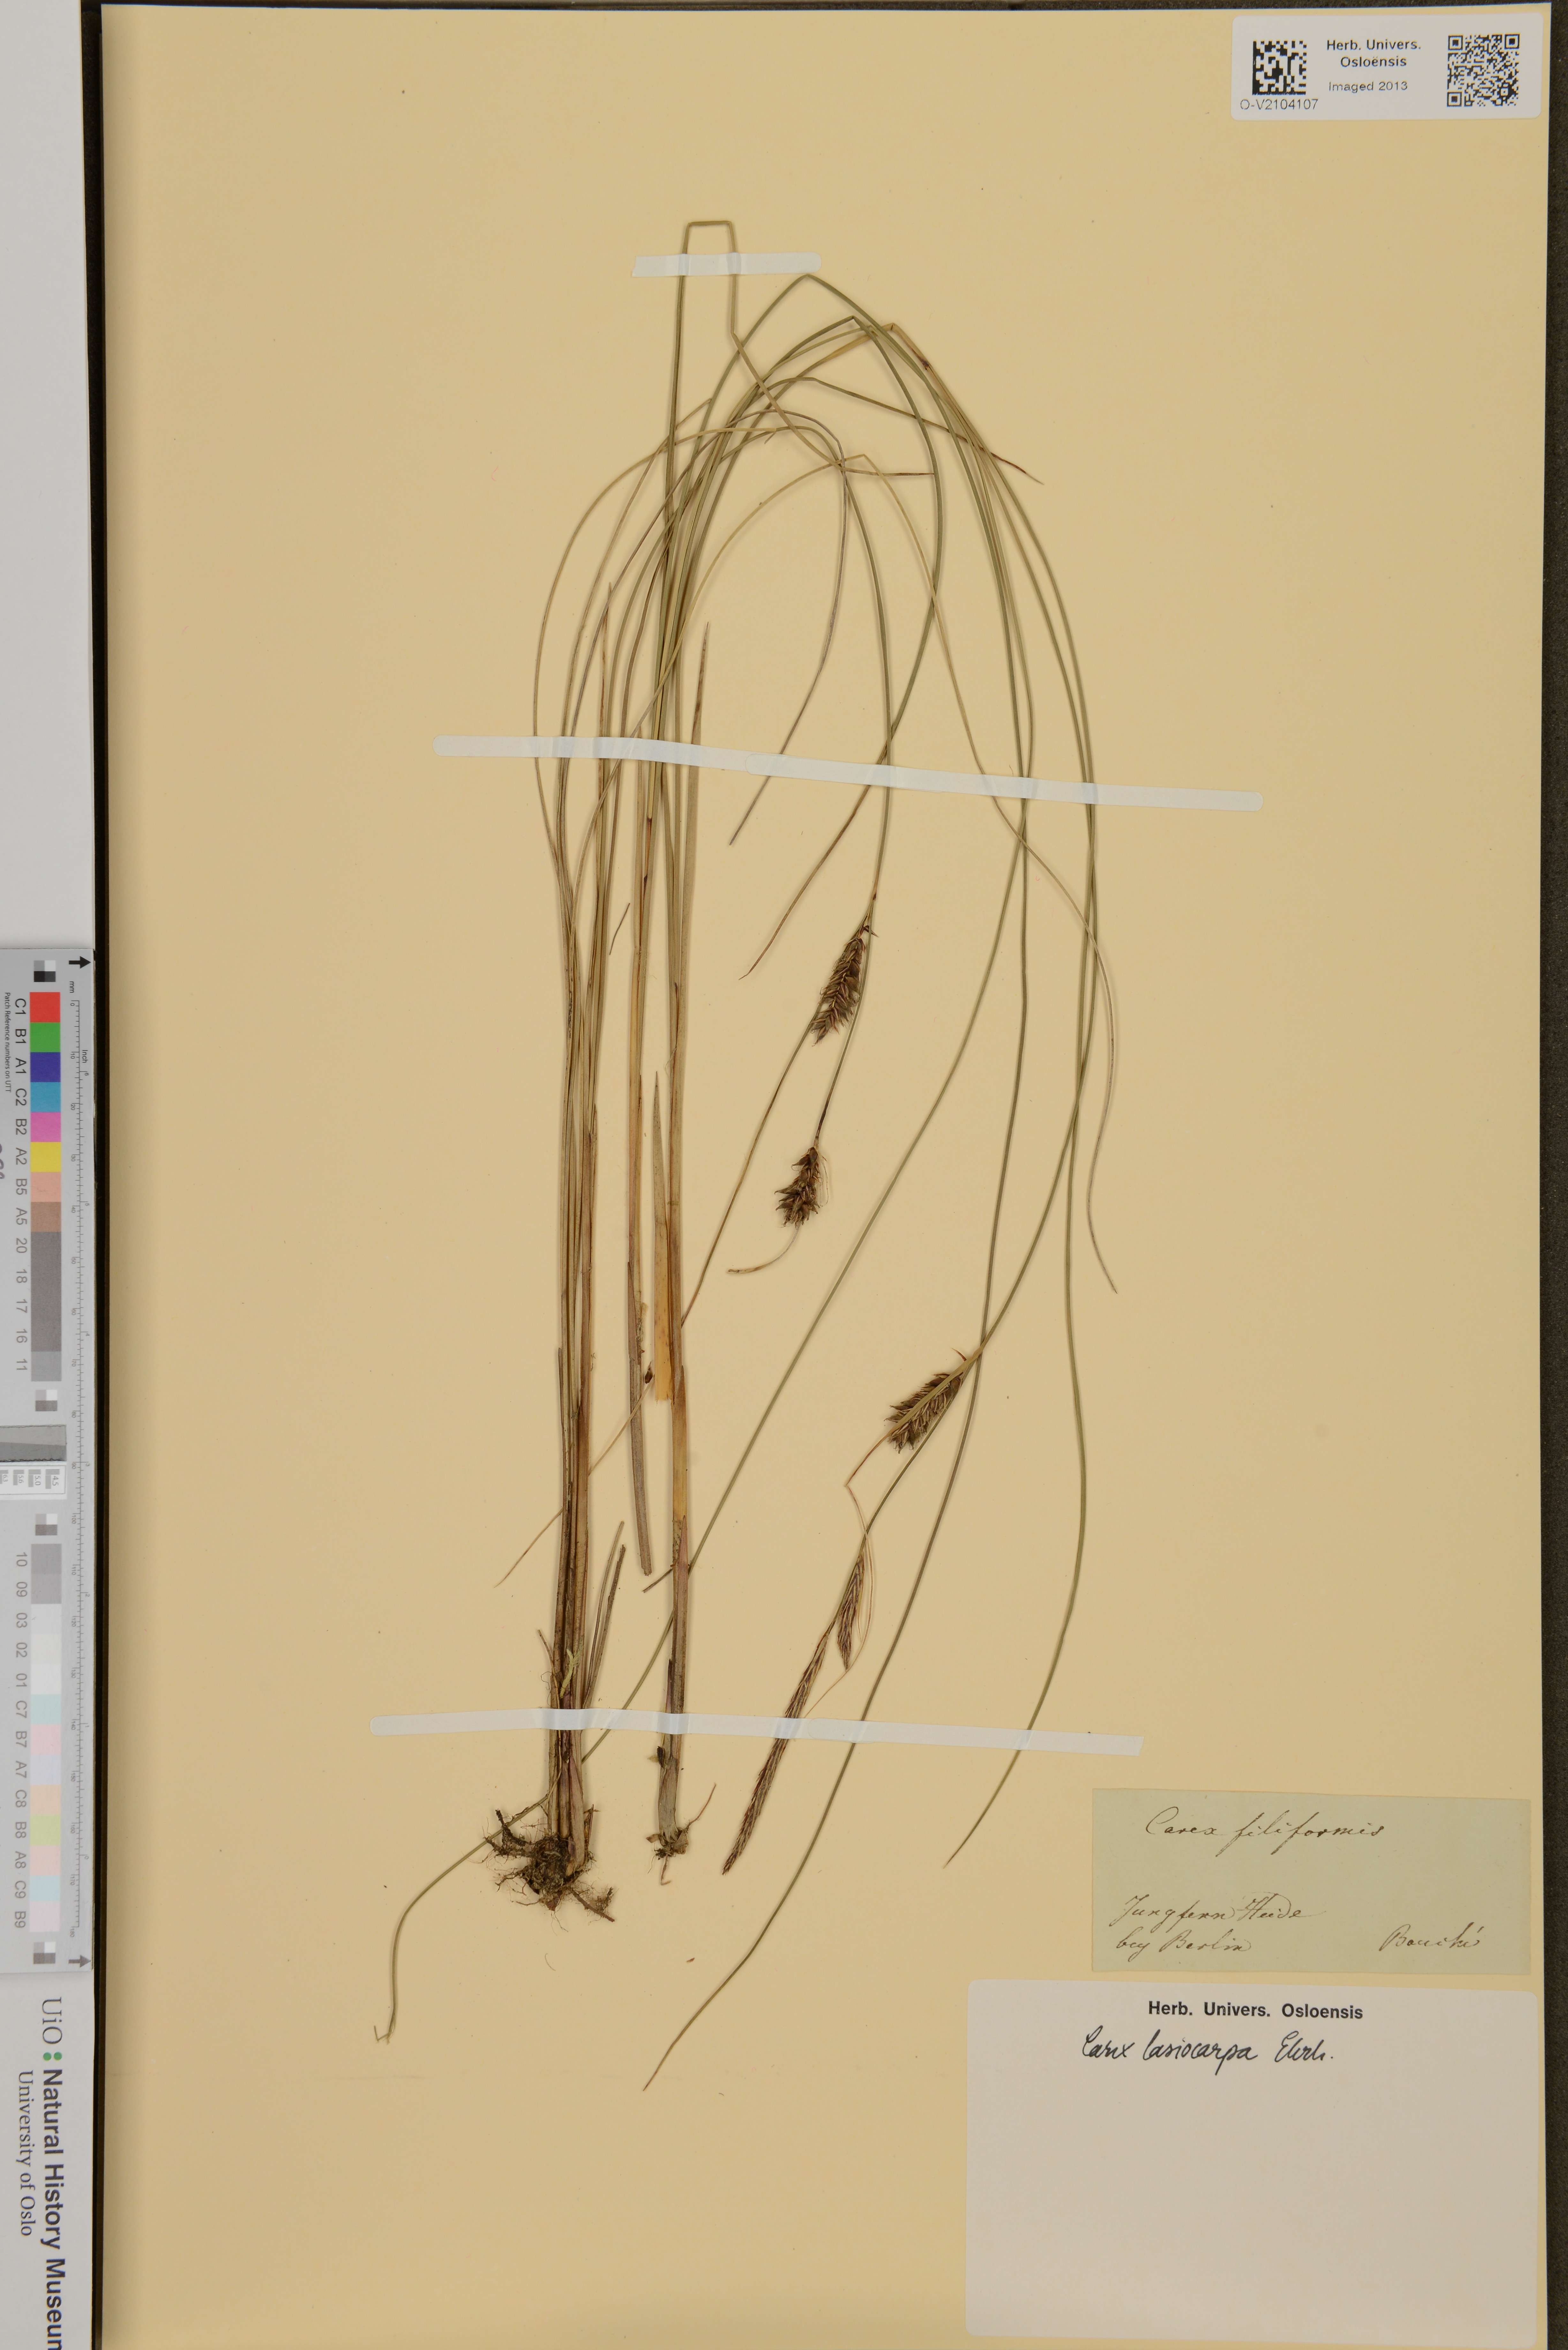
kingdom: Plantae
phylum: Tracheophyta
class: Liliopsida
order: Poales
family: Cyperaceae
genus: Carex
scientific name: Carex lasiocarpa
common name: Slender sedge
